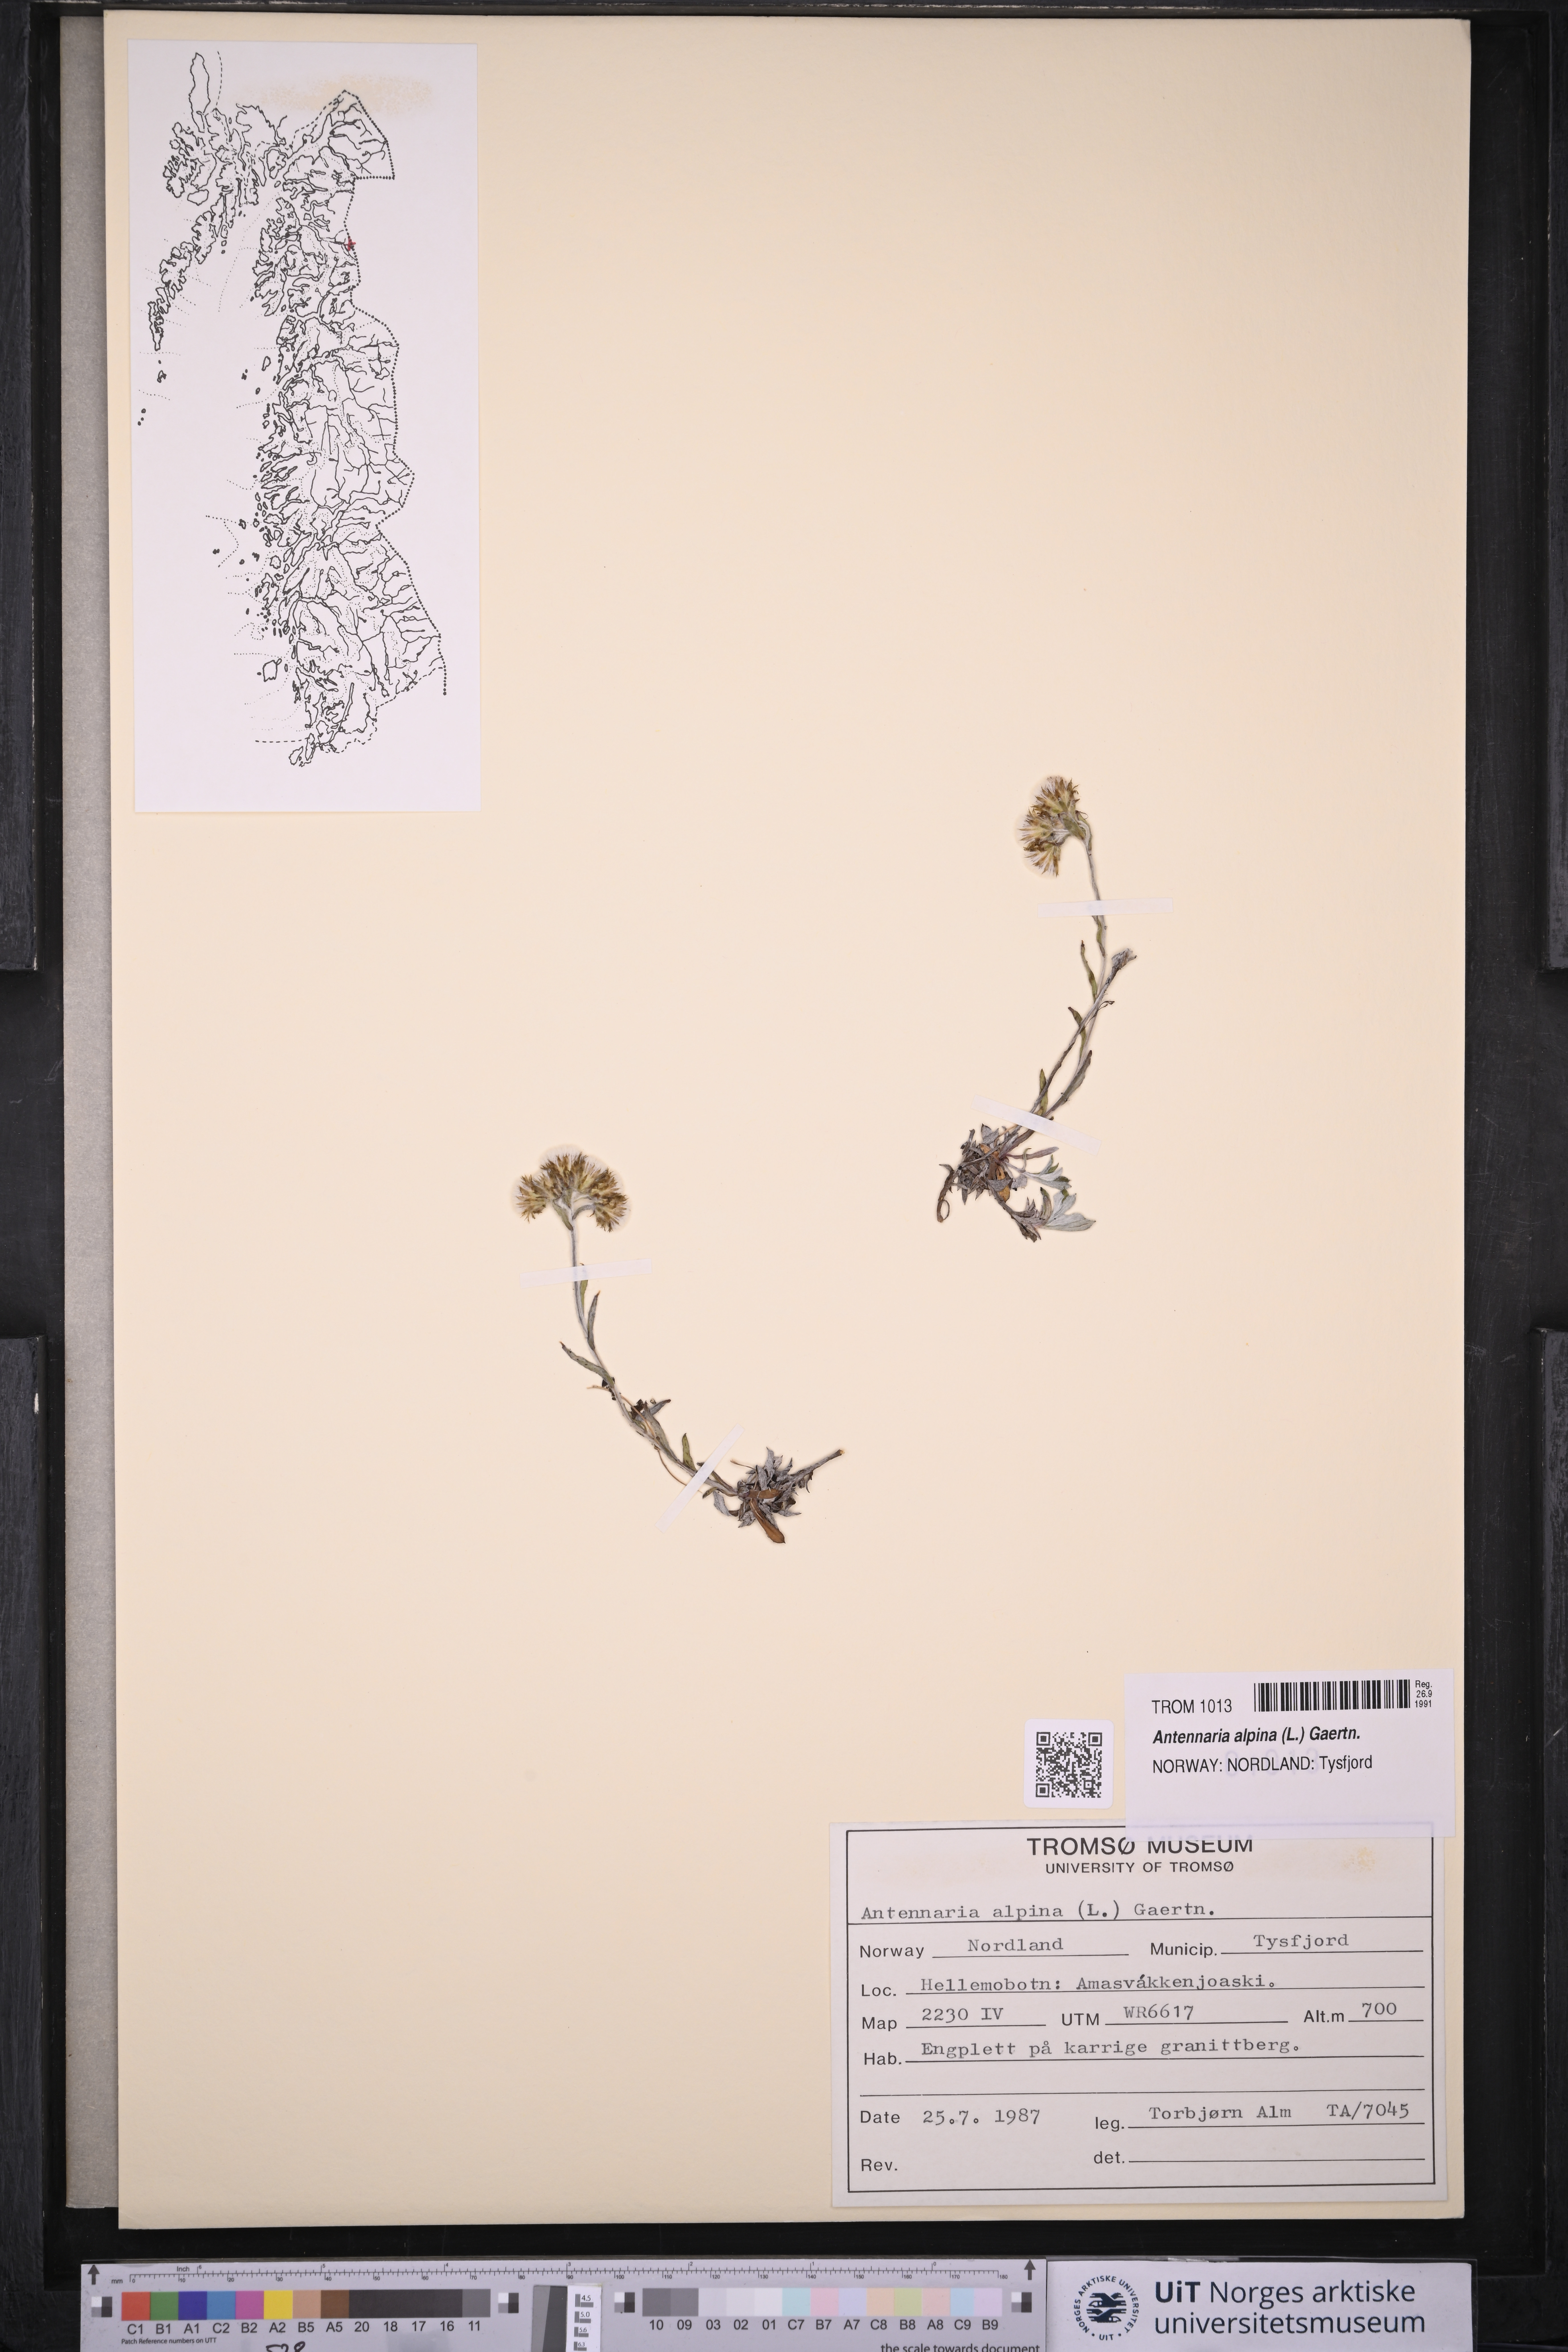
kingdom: Plantae
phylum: Tracheophyta
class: Magnoliopsida
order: Asterales
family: Asteraceae
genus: Antennaria
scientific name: Antennaria alpina
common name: Alpine pussytoes
